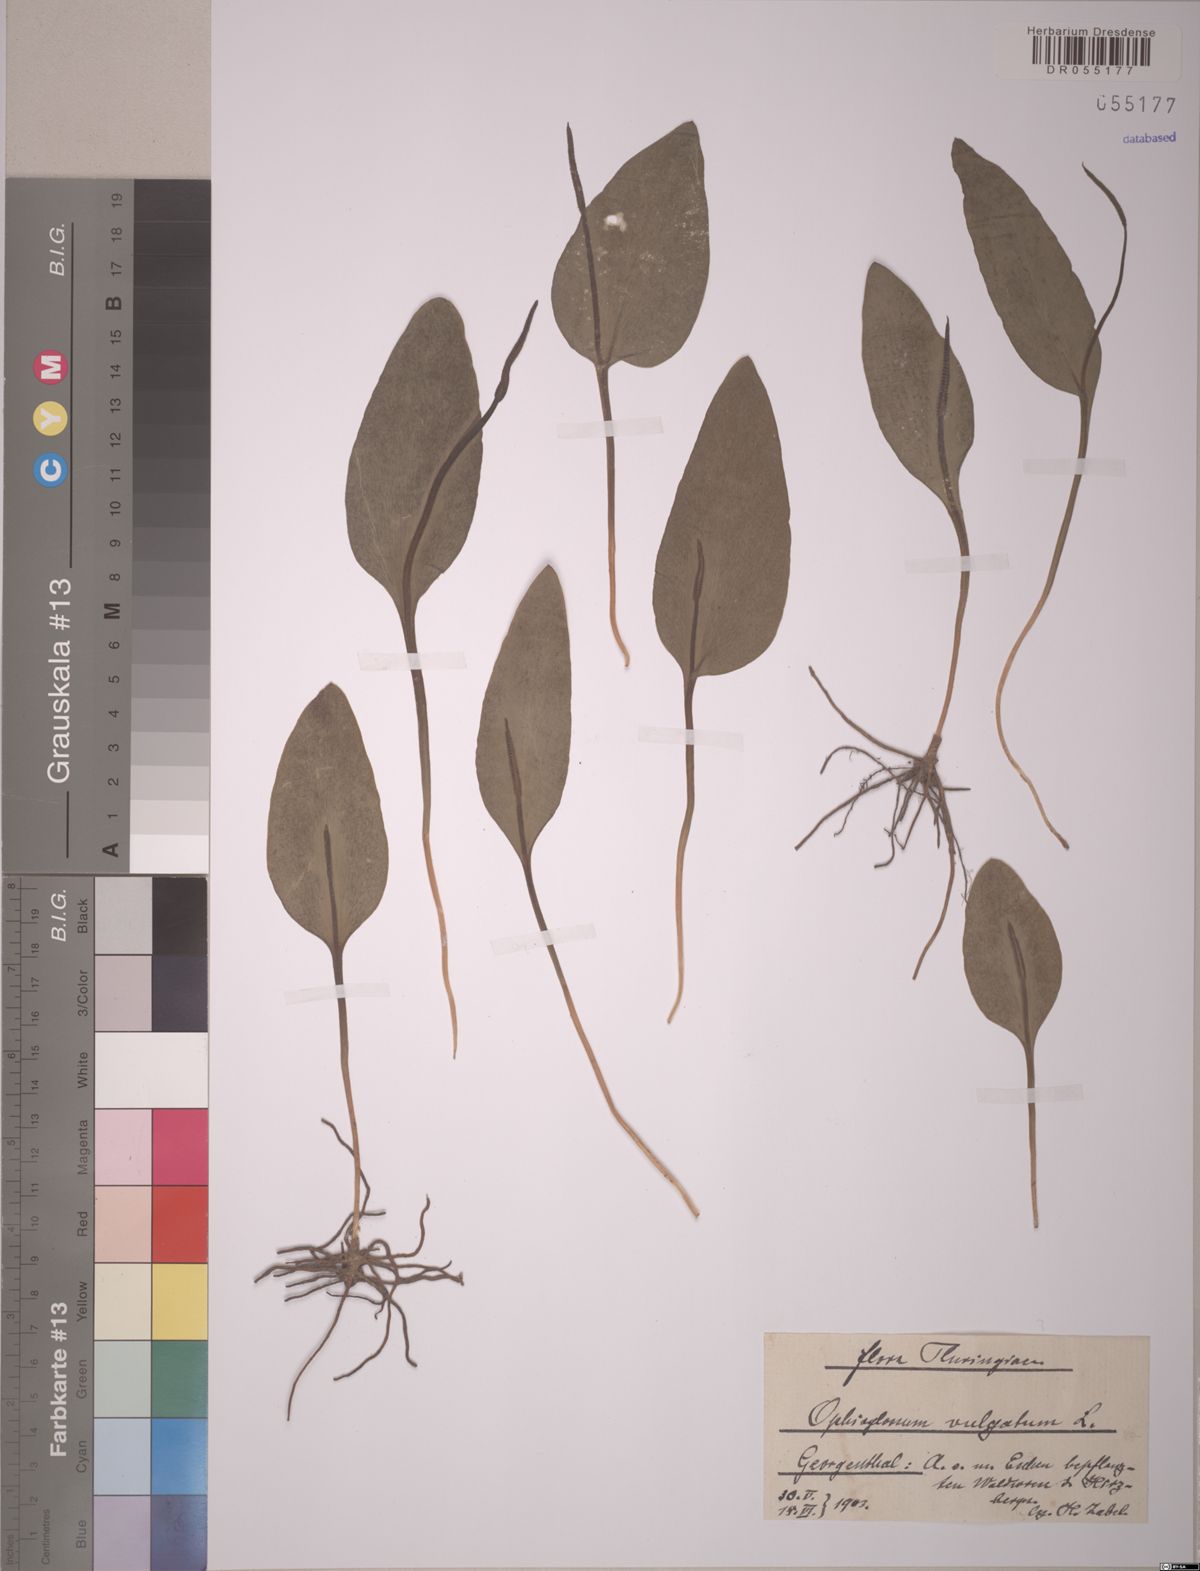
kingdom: Plantae
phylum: Tracheophyta
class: Polypodiopsida
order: Ophioglossales
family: Ophioglossaceae
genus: Ophioglossum
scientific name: Ophioglossum vulgatum
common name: Adder's-tongue
